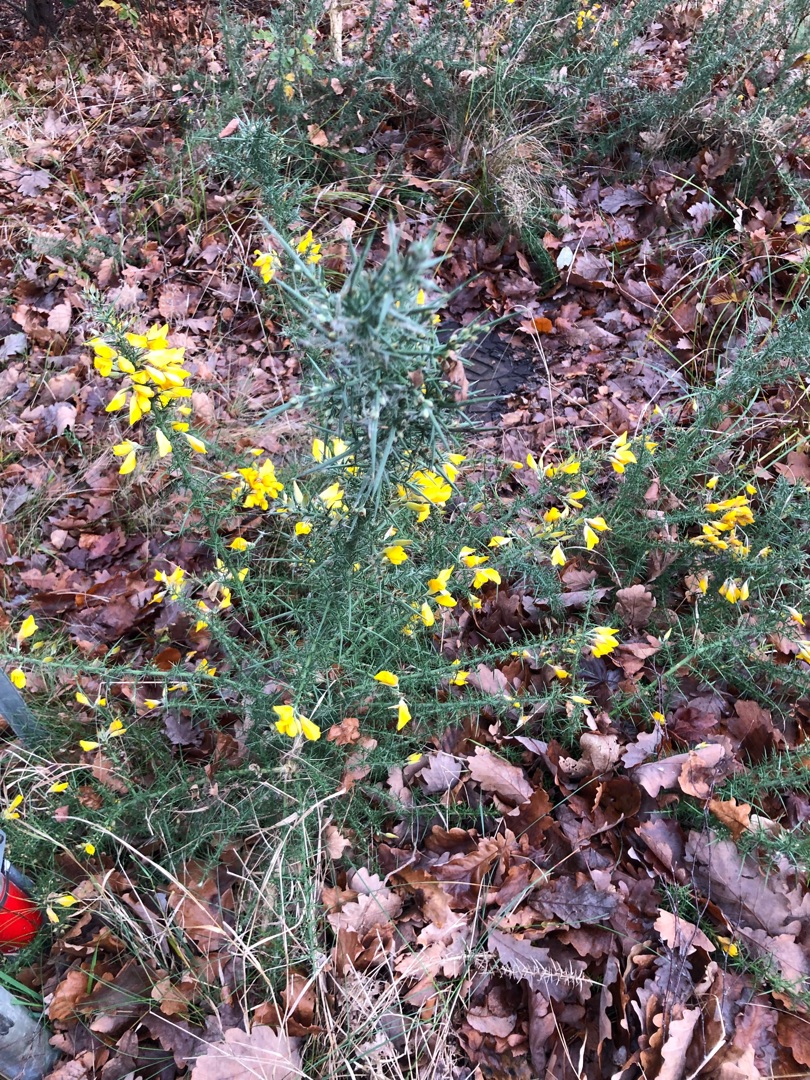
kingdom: Plantae
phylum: Tracheophyta
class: Magnoliopsida
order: Fabales
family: Fabaceae
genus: Ulex
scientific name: Ulex europaeus
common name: Tornblad
